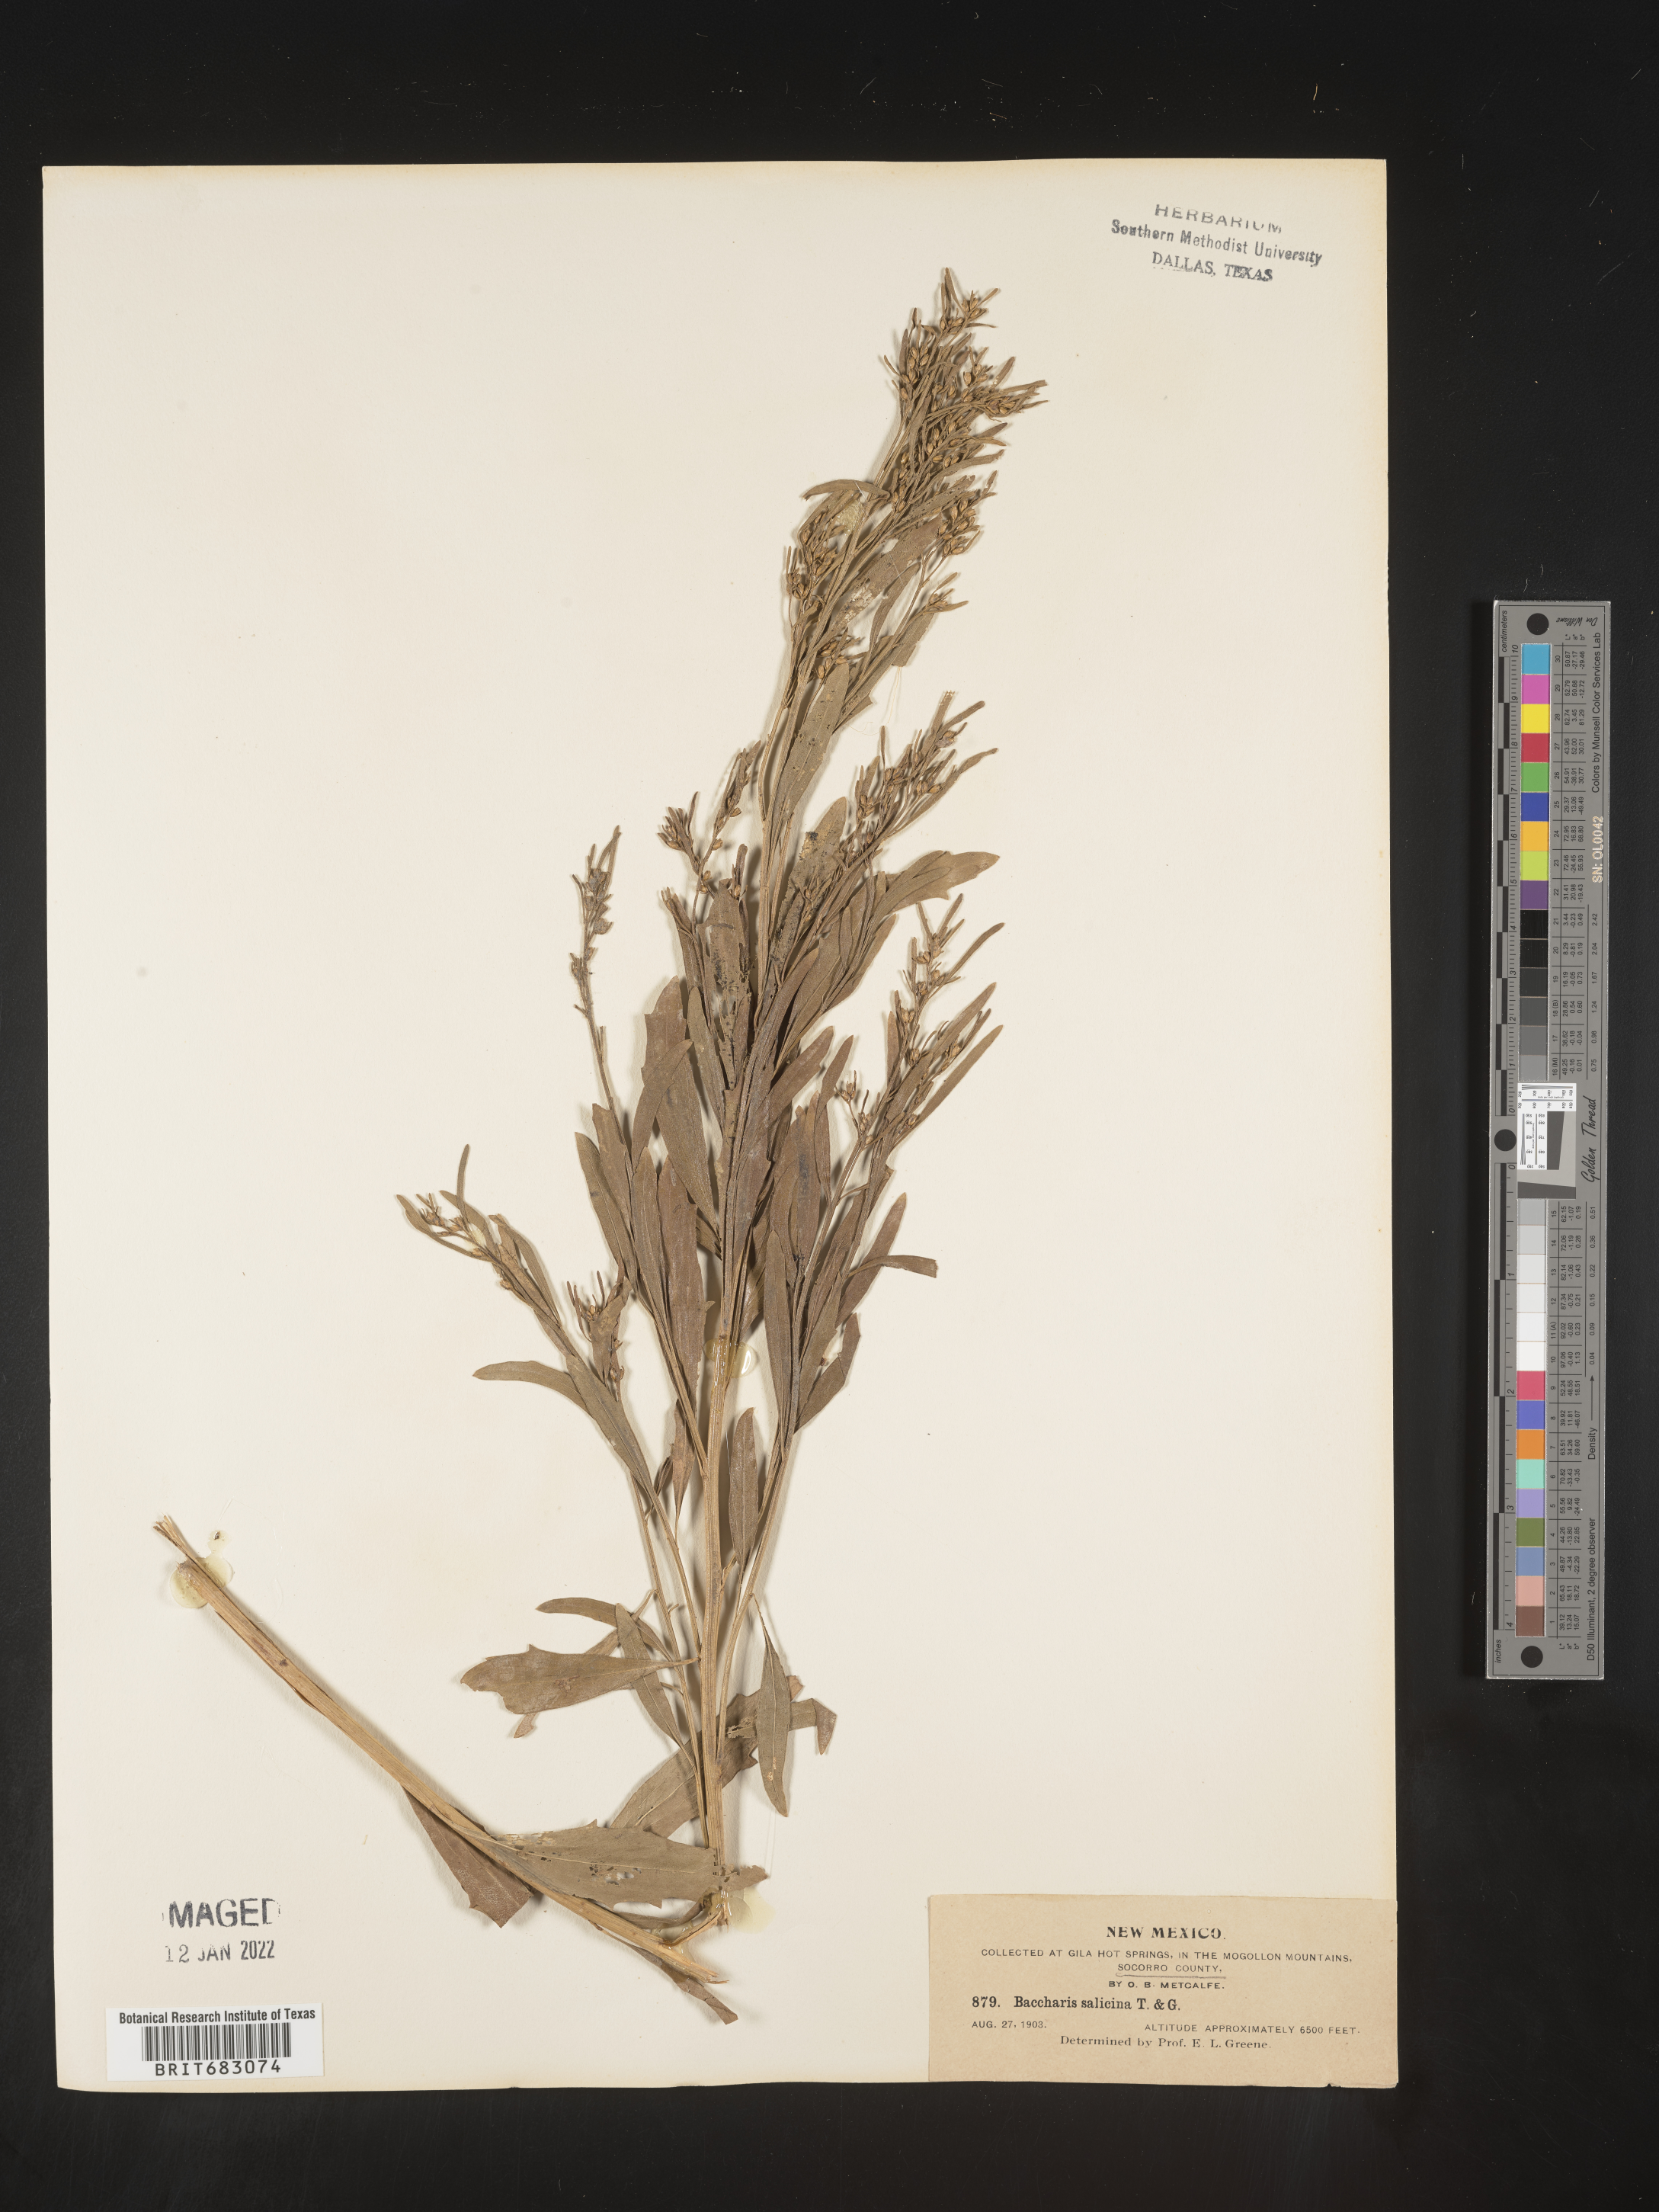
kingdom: Plantae
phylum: Tracheophyta
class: Magnoliopsida
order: Asterales
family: Asteraceae
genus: Baccharis
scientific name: Baccharis salicina
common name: Willow baccharis
